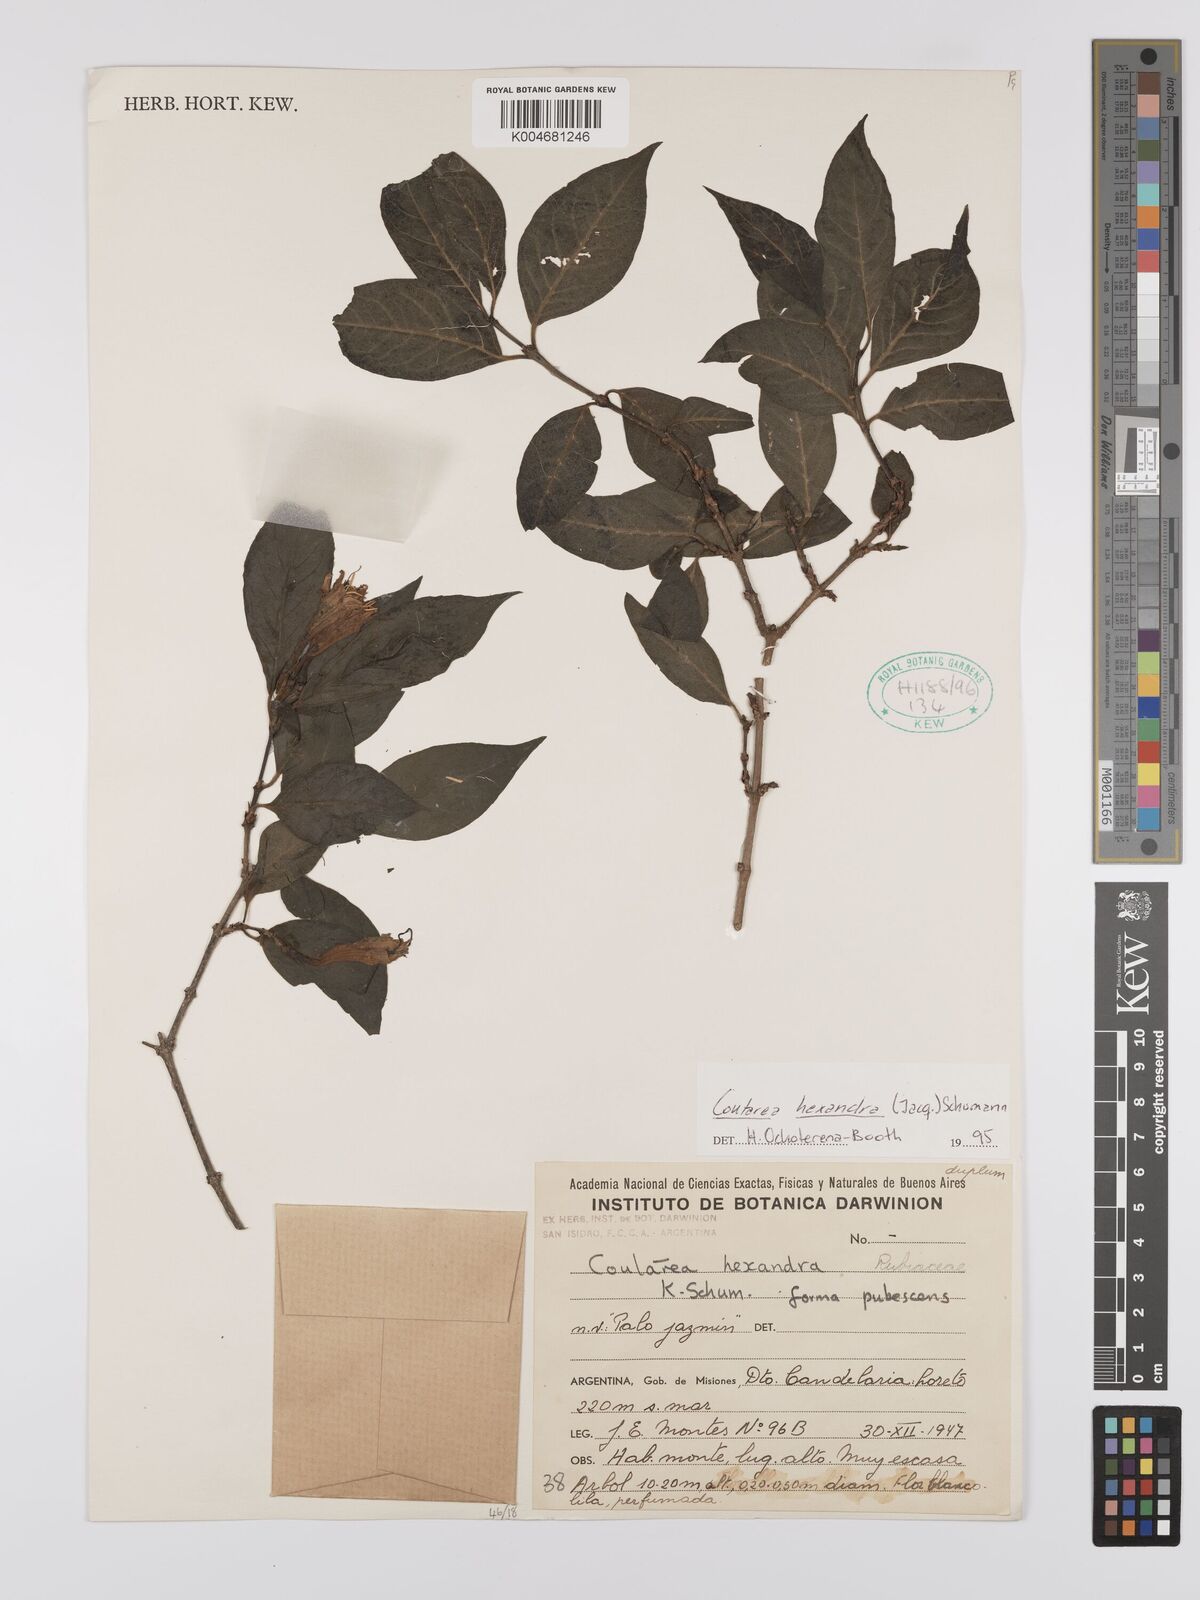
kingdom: Plantae
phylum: Tracheophyta
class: Magnoliopsida
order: Gentianales
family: Rubiaceae
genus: Coutarea
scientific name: Coutarea hexandra
